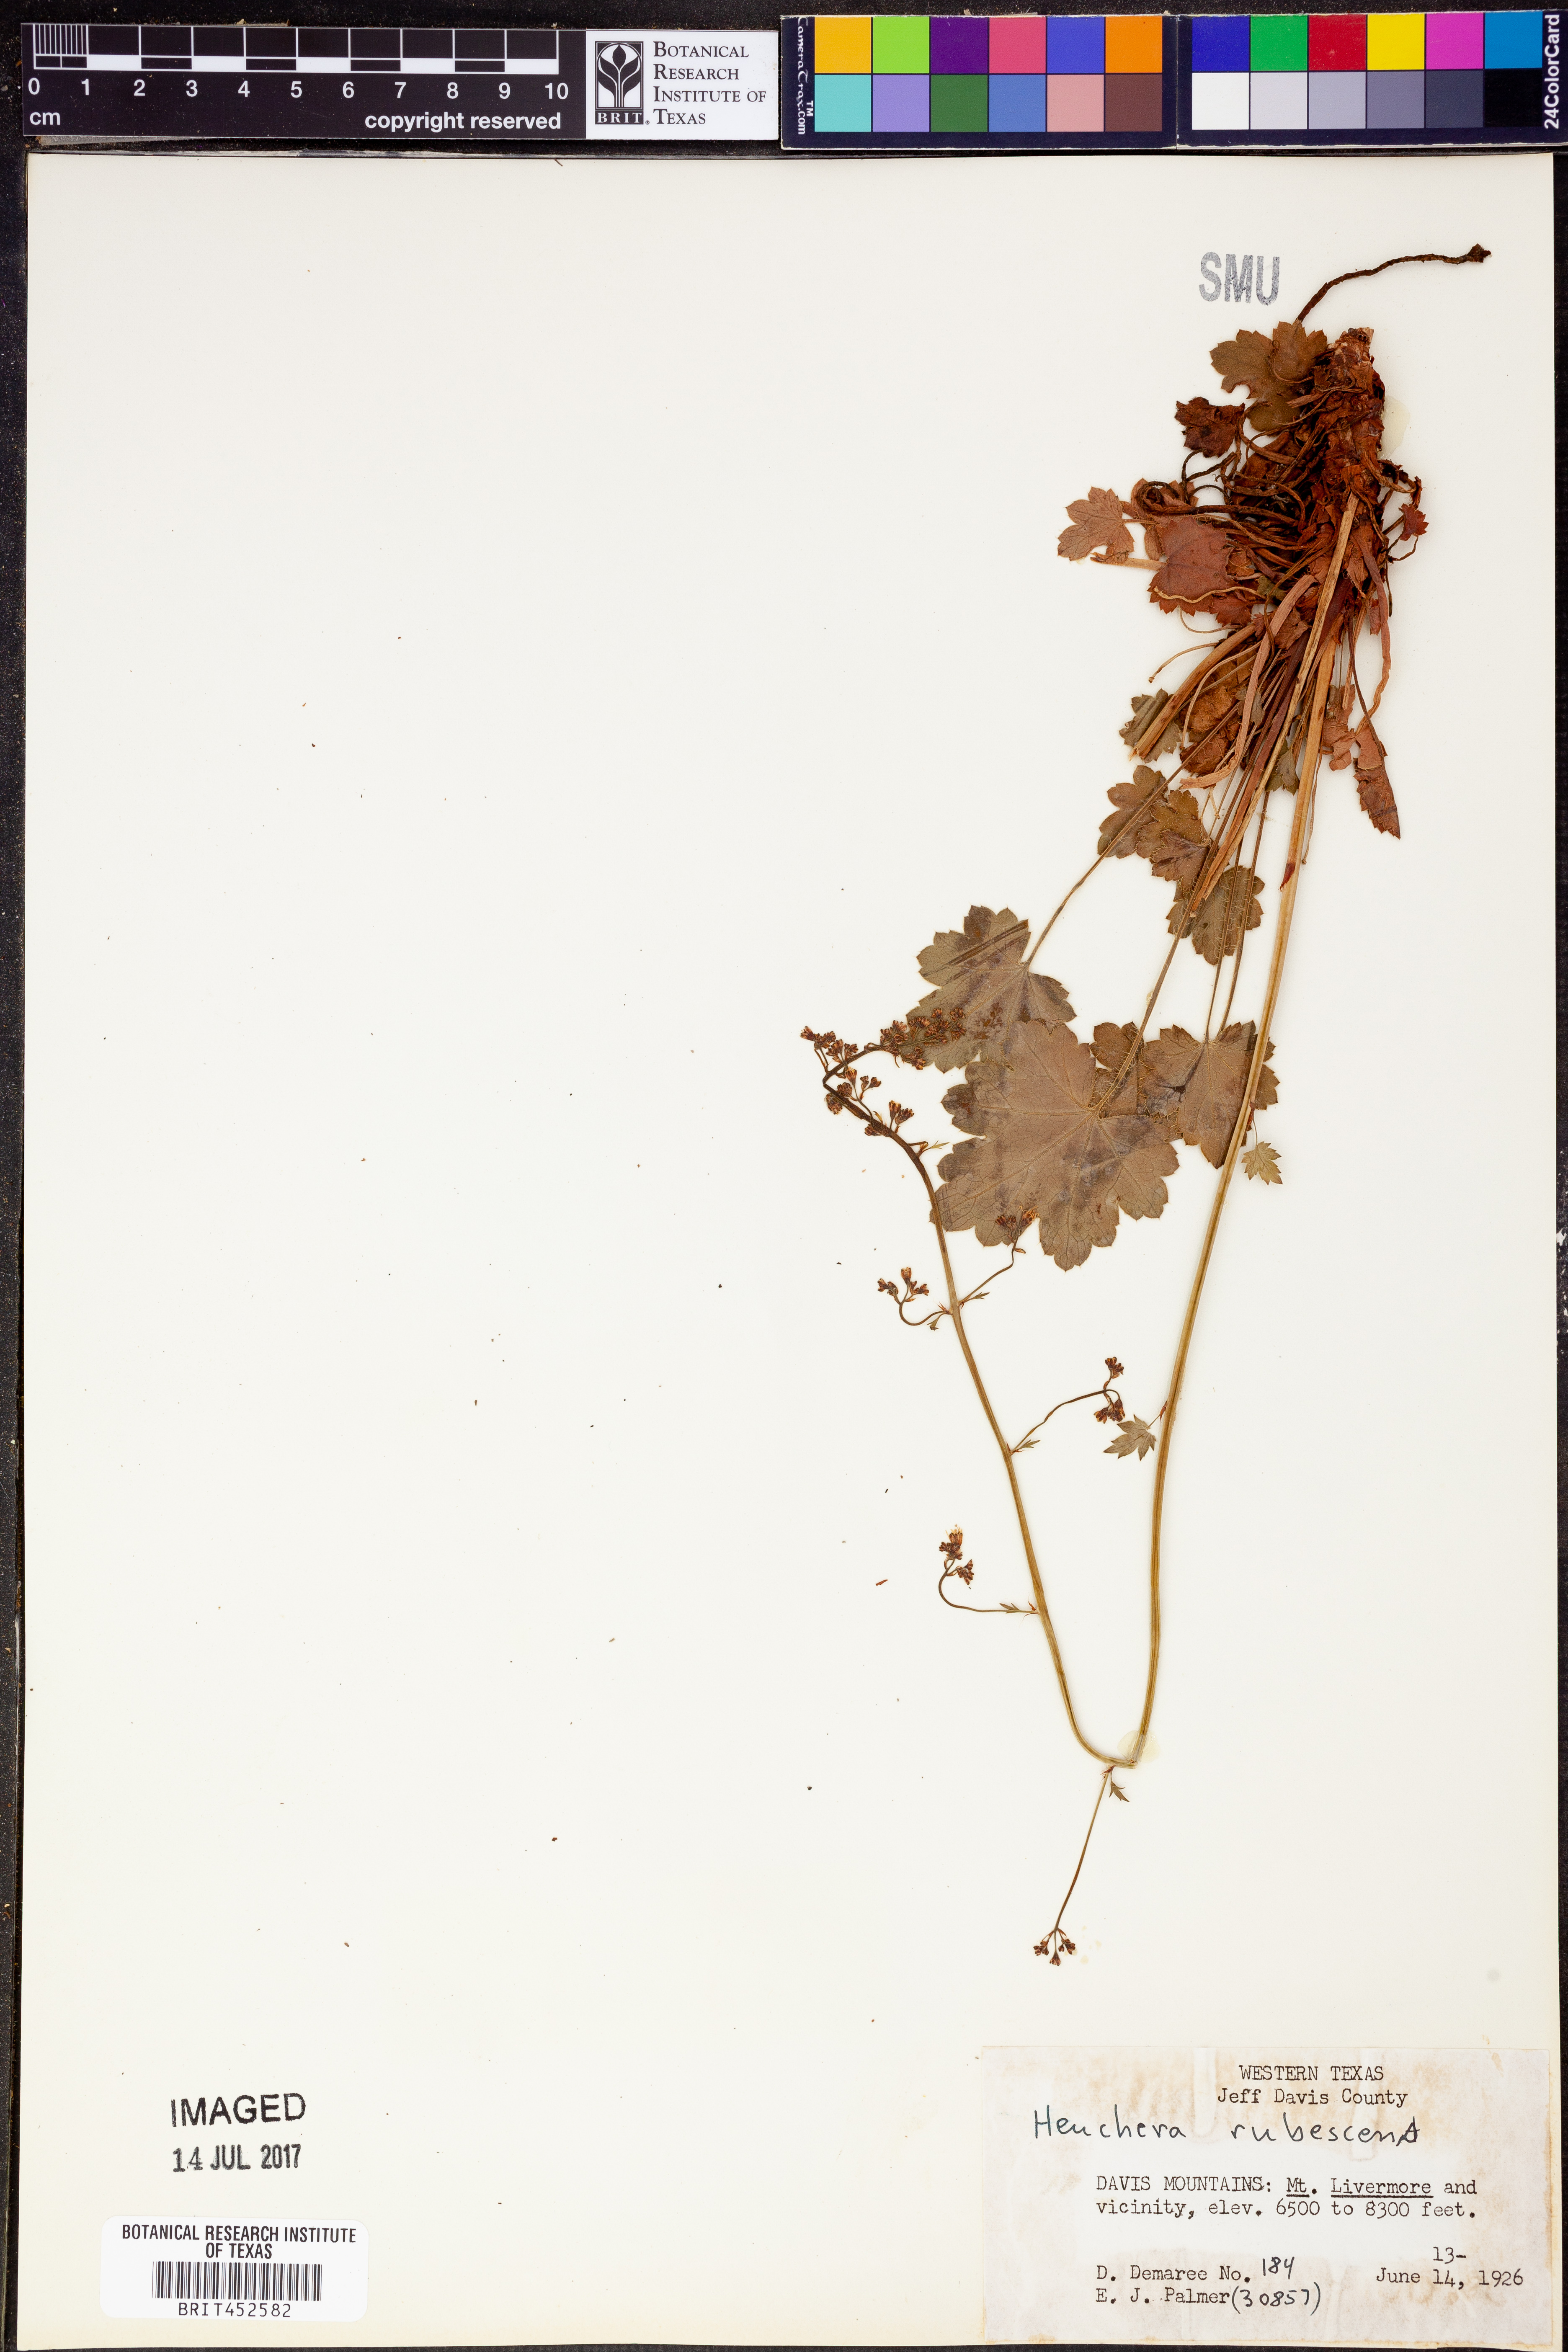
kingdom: Plantae
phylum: Tracheophyta
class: Magnoliopsida
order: Saxifragales
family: Saxifragaceae
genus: Heuchera
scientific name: Heuchera rubescens
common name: Jack-o'the-rocks
